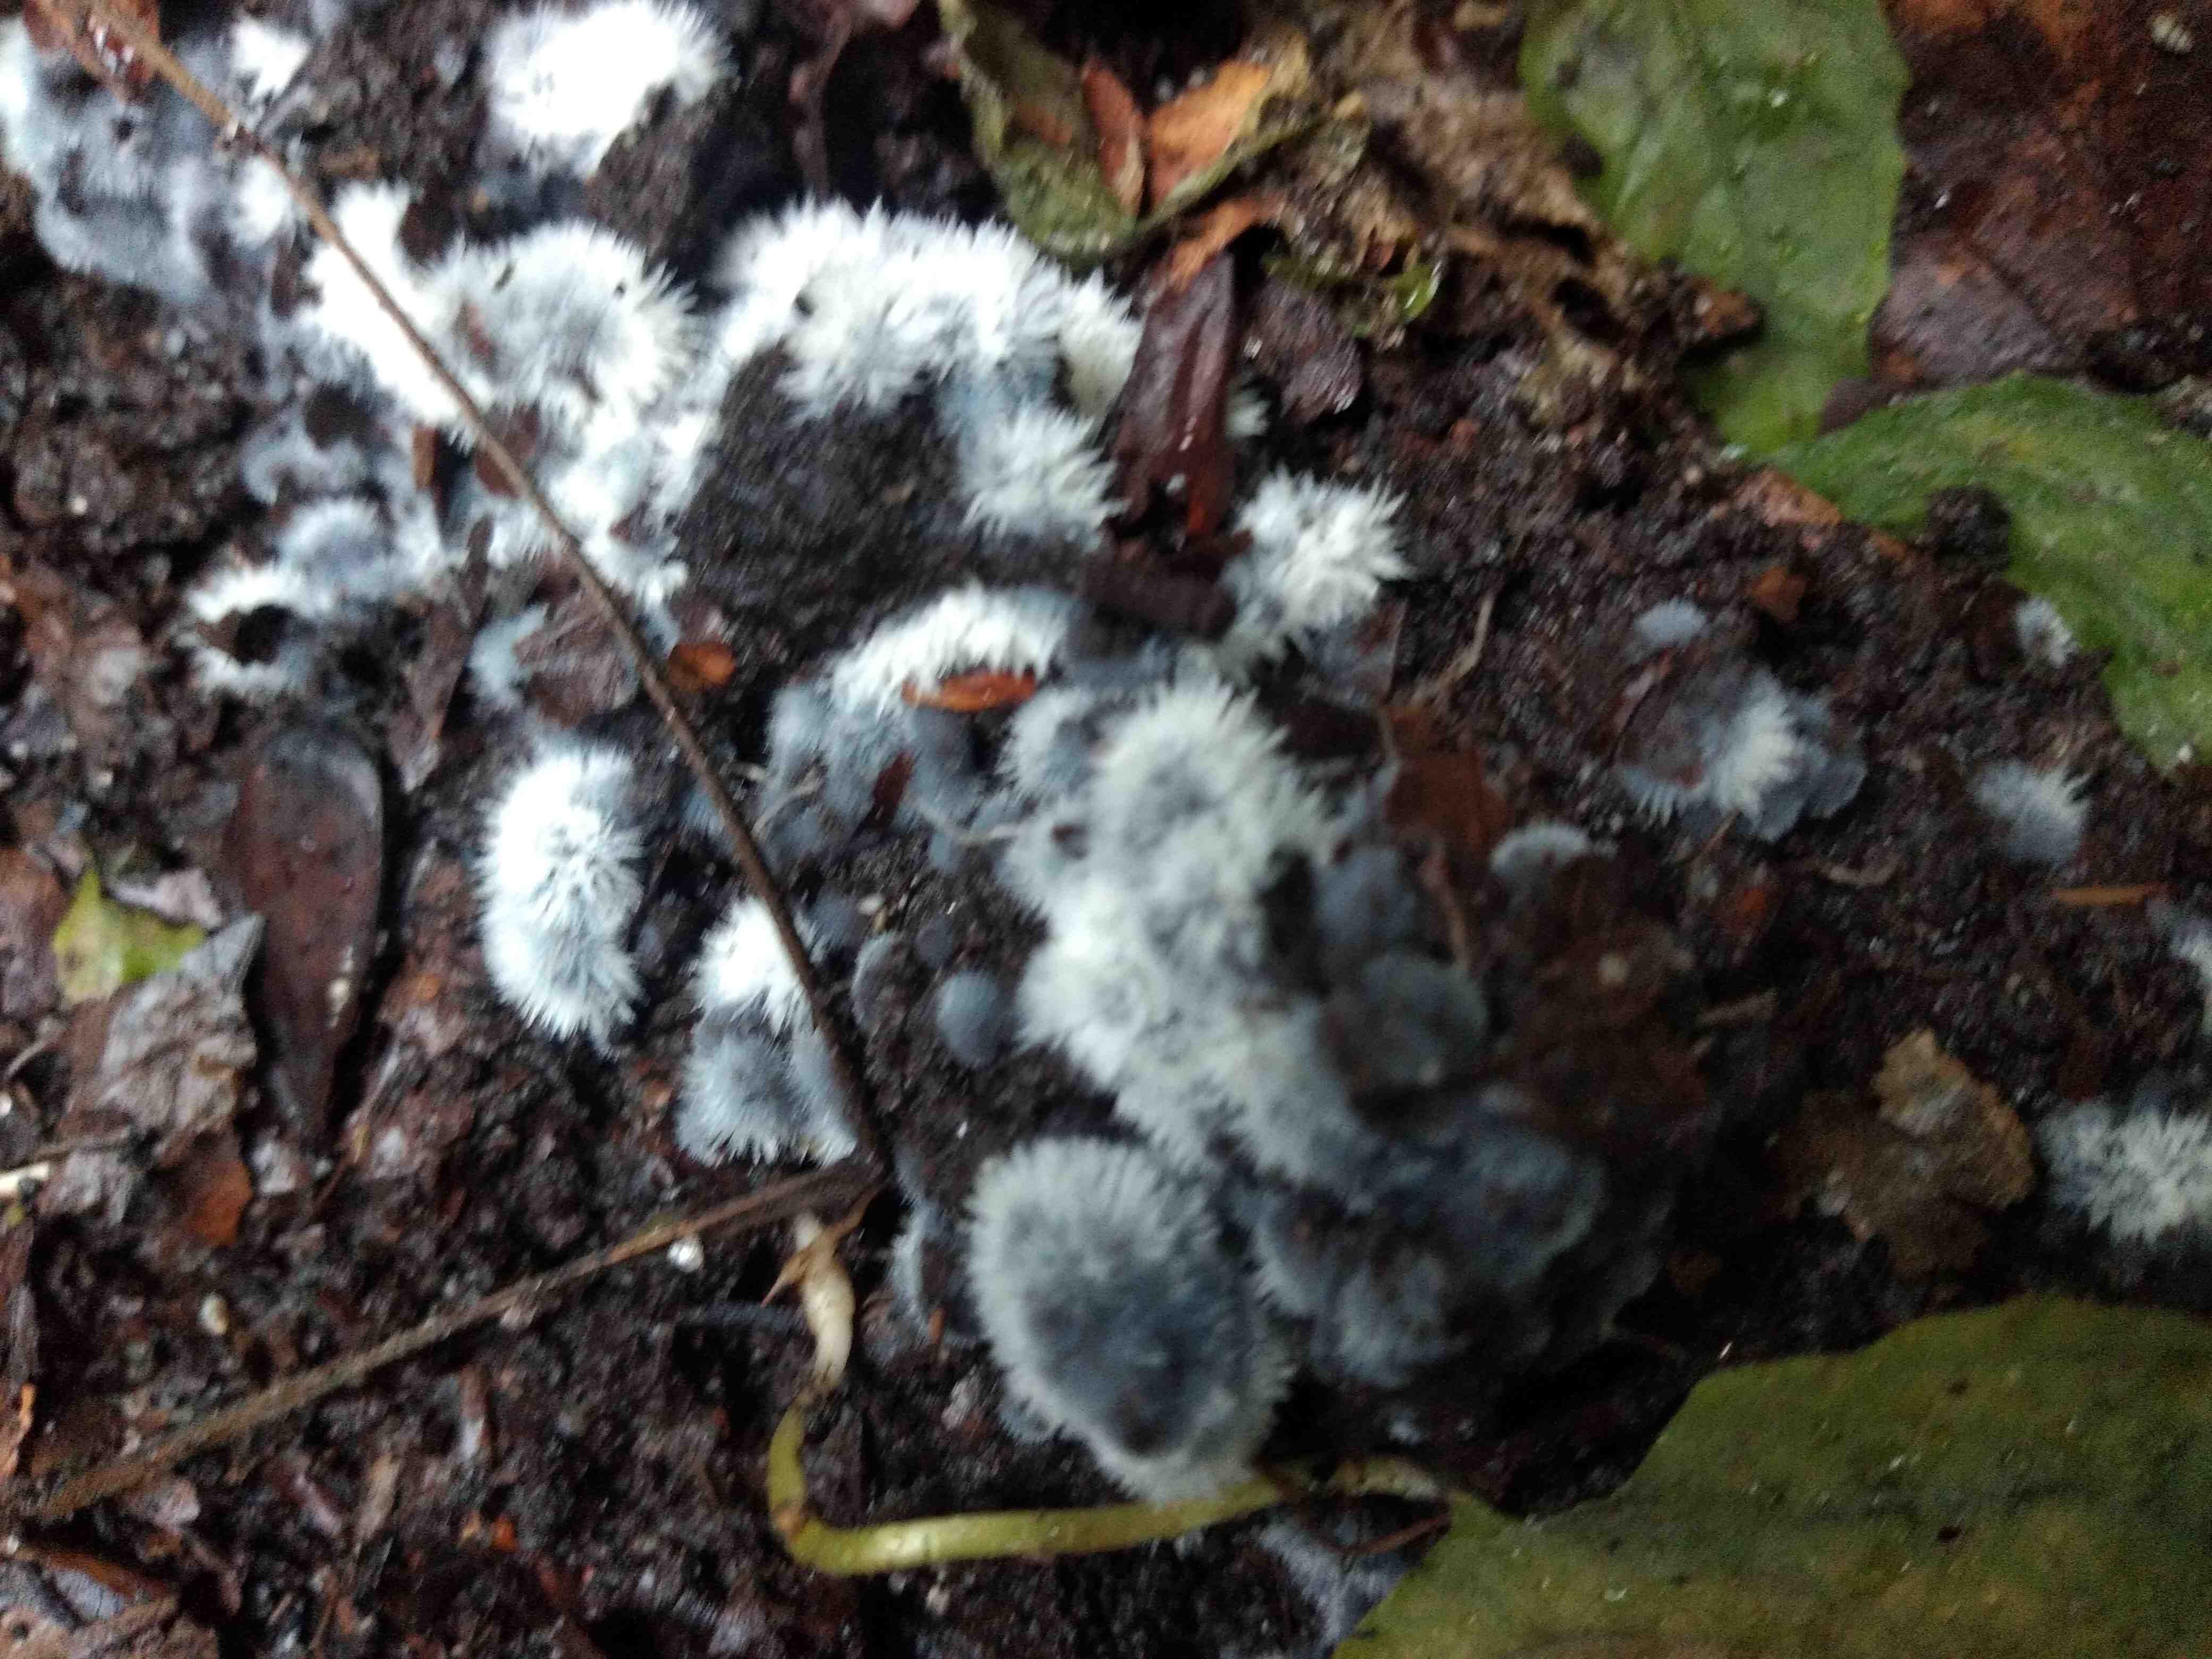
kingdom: Fungi
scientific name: Fungi
